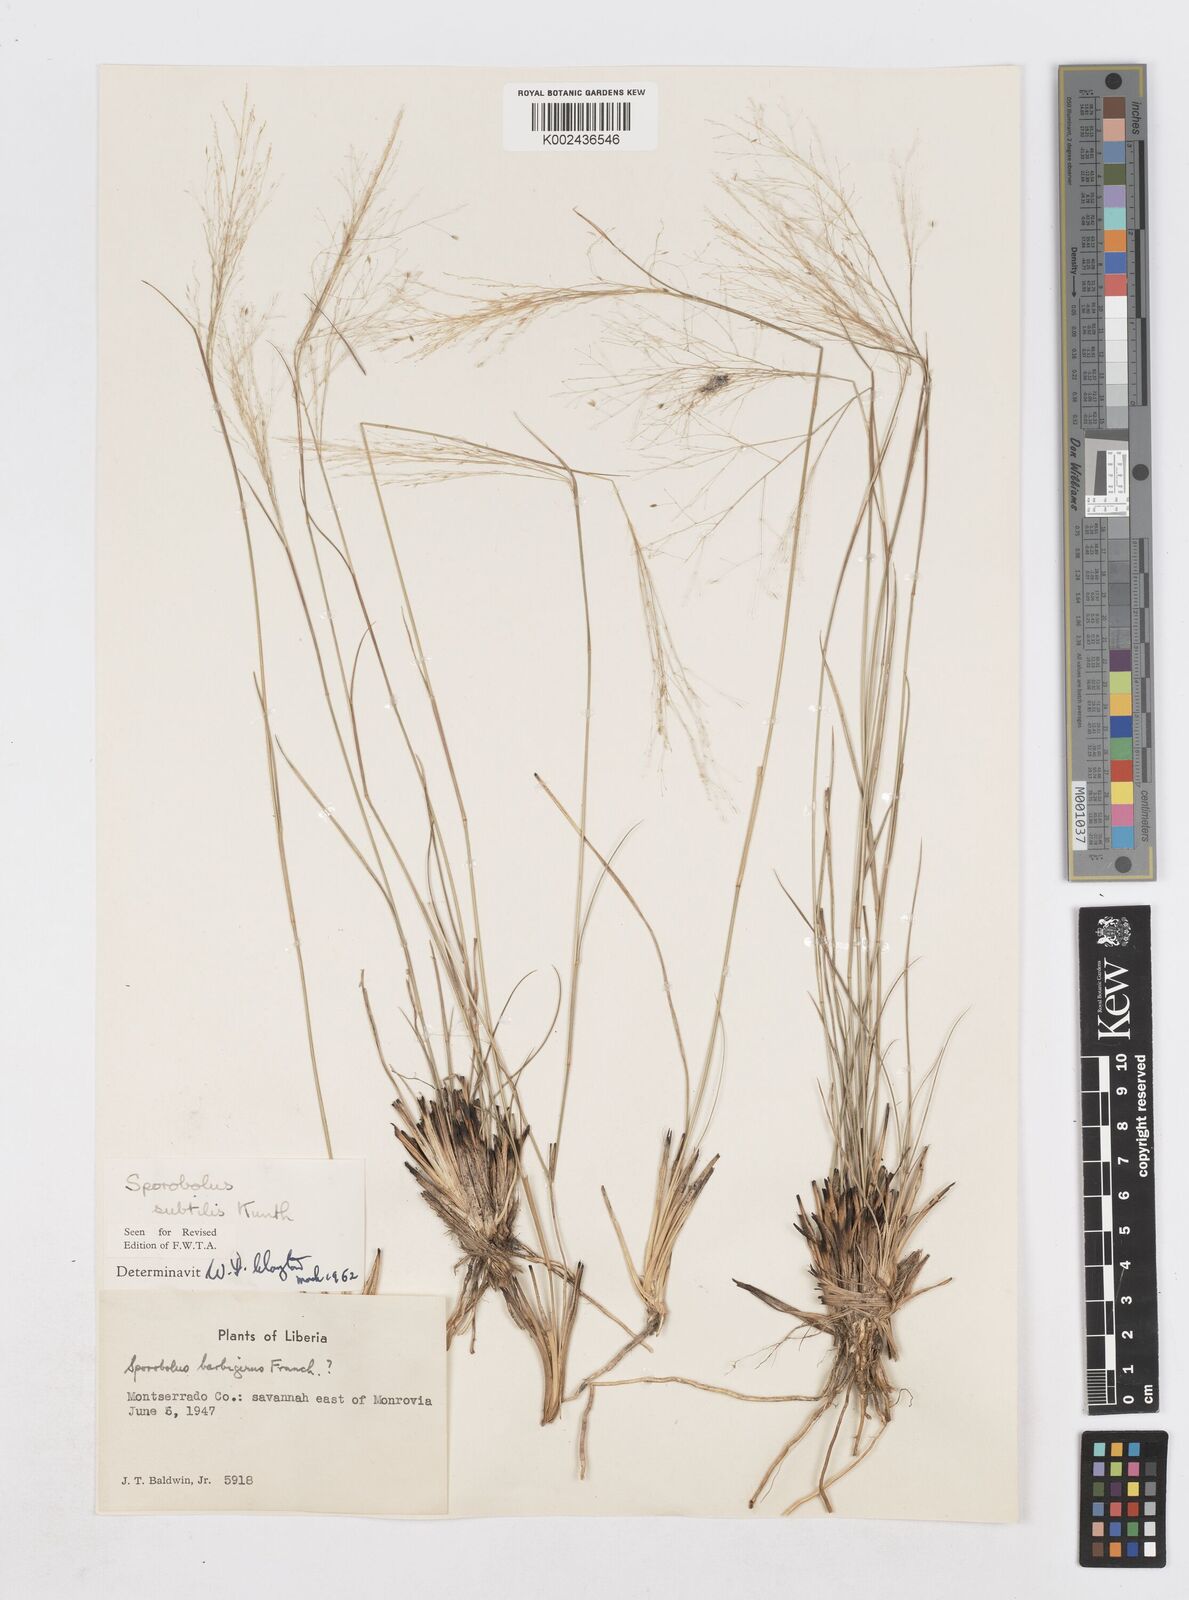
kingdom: Plantae
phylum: Tracheophyta
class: Liliopsida
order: Poales
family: Poaceae
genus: Sporobolus
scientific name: Sporobolus subtilis
